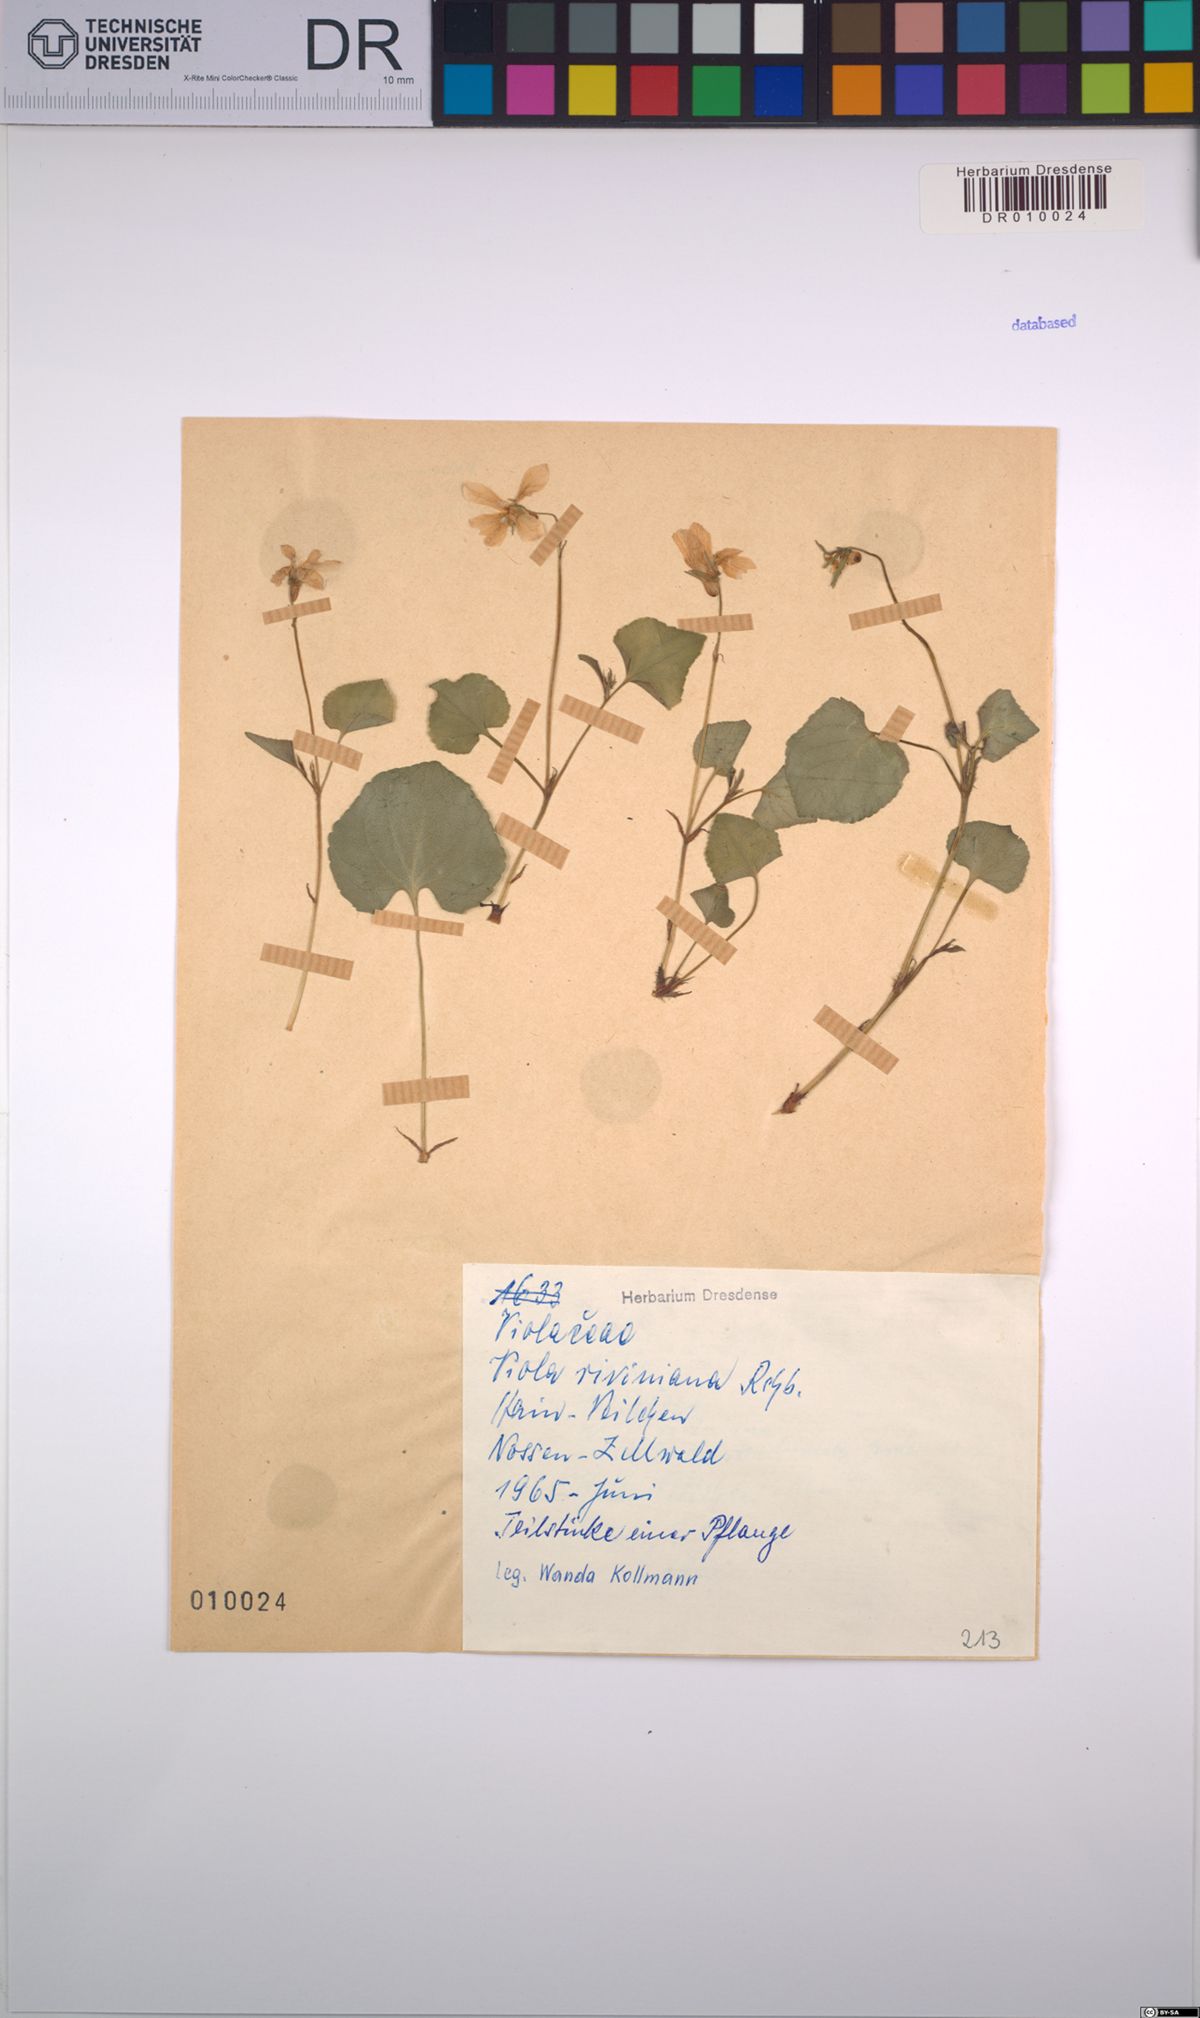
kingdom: Plantae
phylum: Tracheophyta
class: Magnoliopsida
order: Malpighiales
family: Violaceae
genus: Viola
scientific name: Viola riviniana
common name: Common dog-violet
